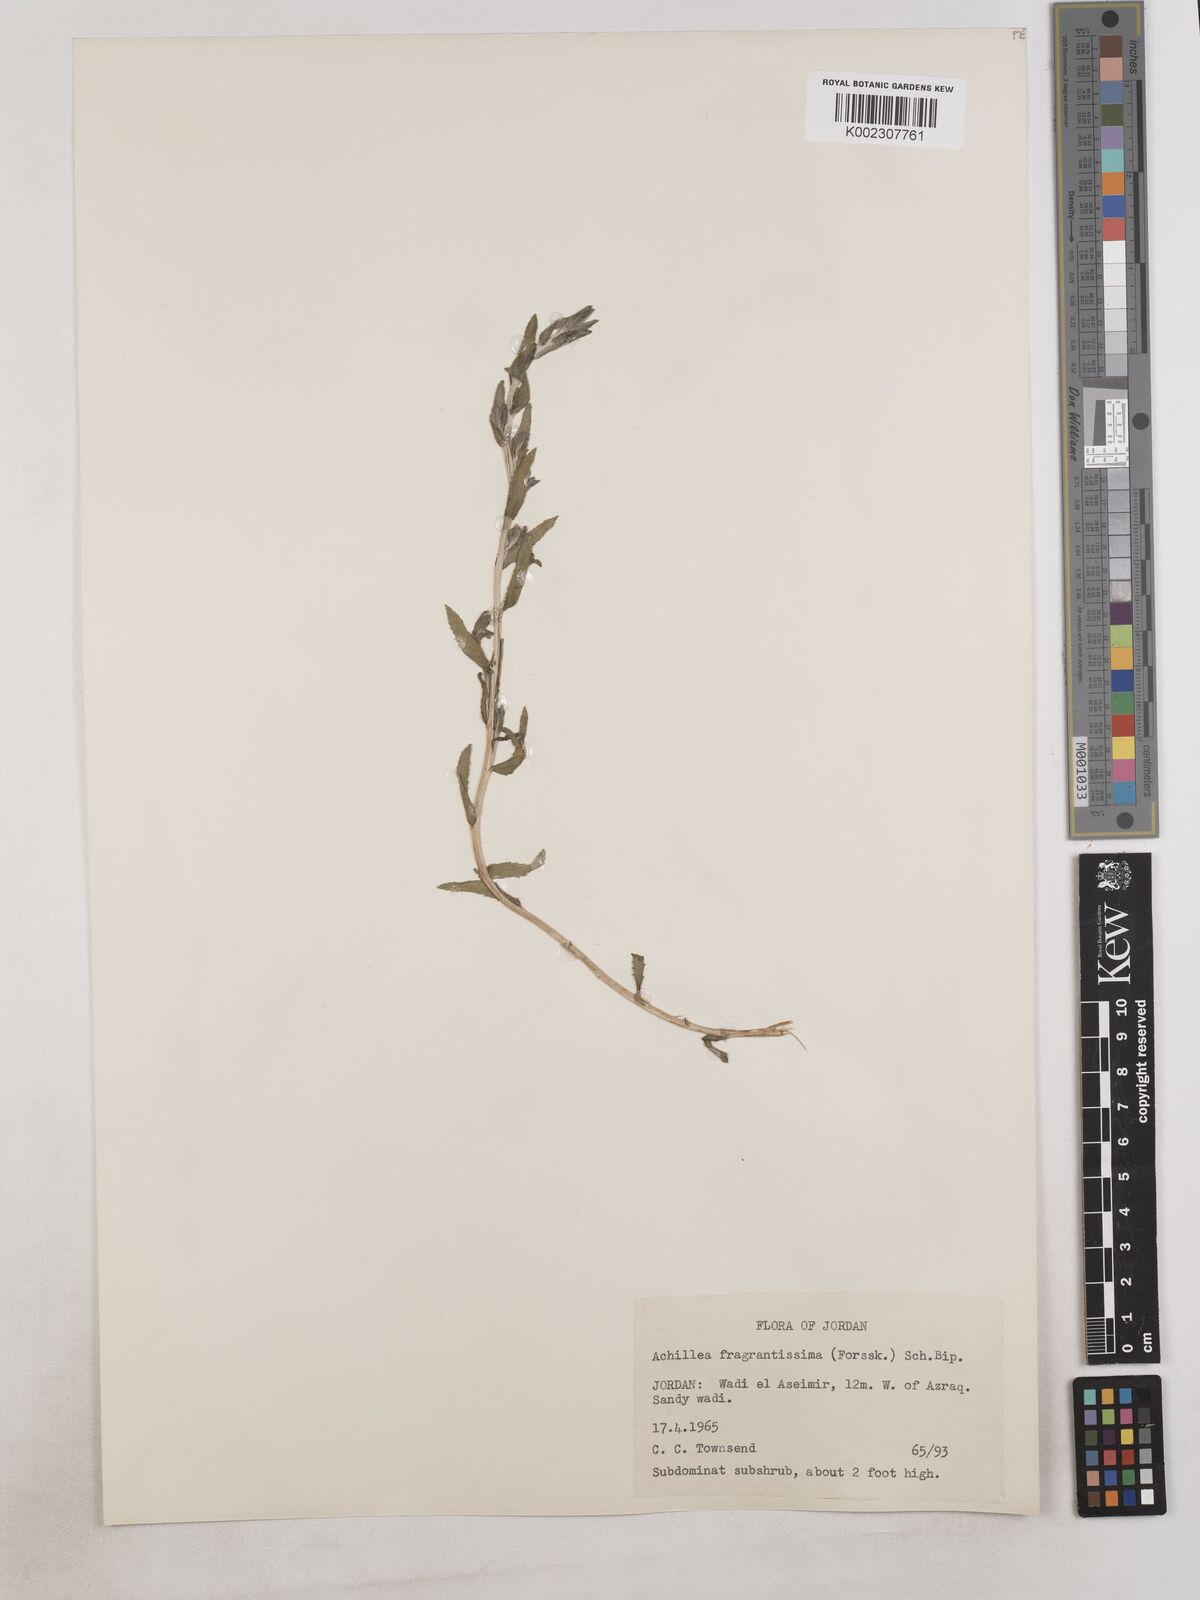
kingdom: Plantae
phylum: Tracheophyta
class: Magnoliopsida
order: Asterales
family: Asteraceae
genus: Achillea
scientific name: Achillea fragrantissima
